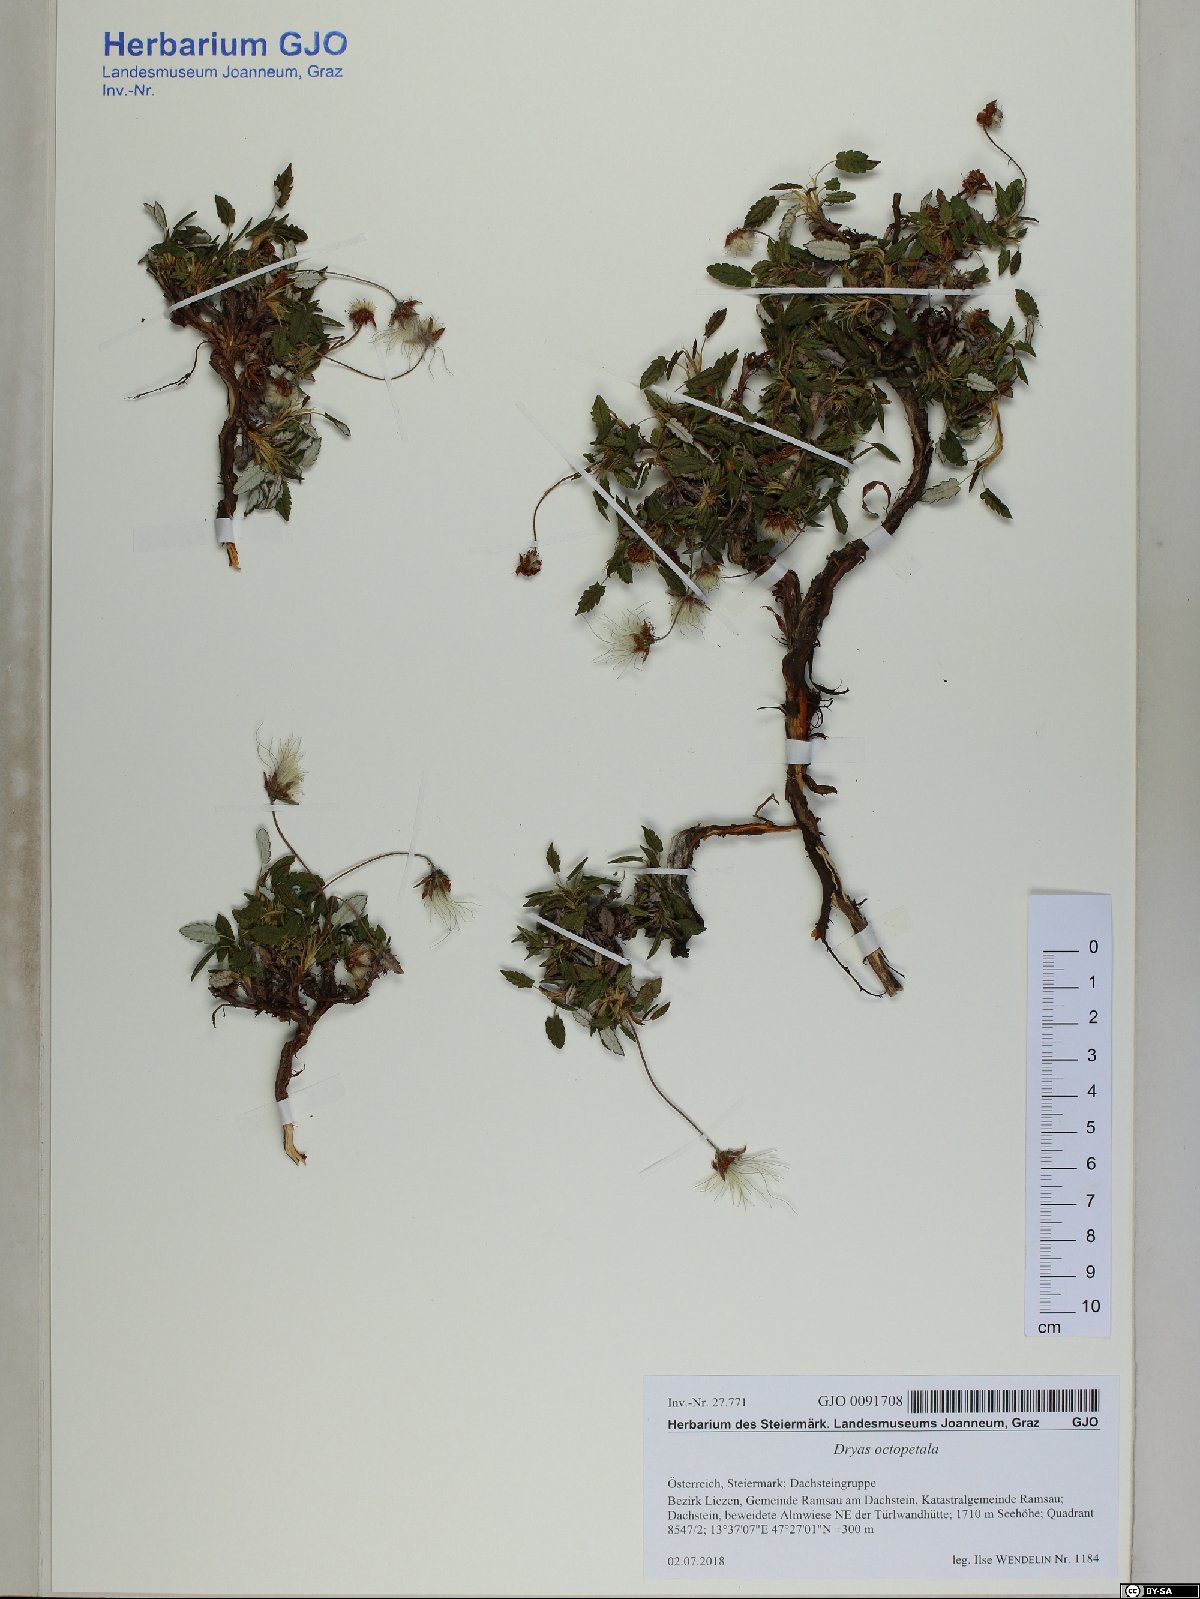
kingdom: Plantae
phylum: Tracheophyta
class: Magnoliopsida
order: Rosales
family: Rosaceae
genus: Dryas
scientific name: Dryas octopetala
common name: Eight-petal mountain-avens
